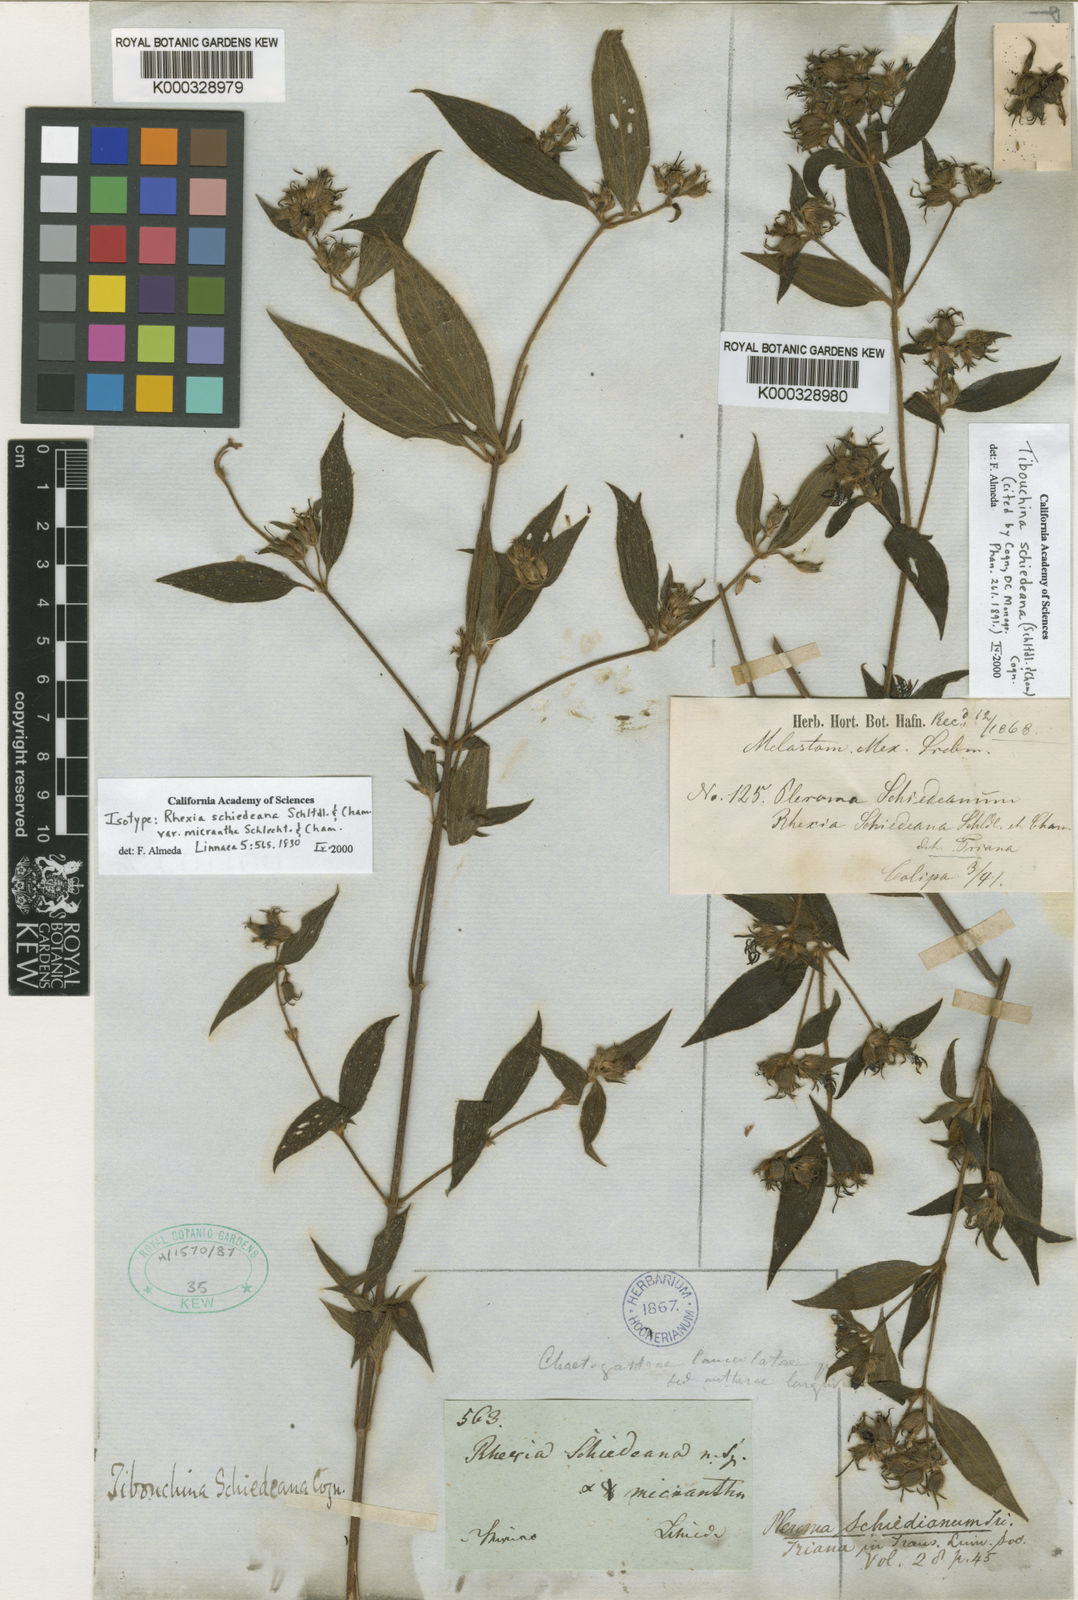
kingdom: Plantae
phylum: Tracheophyta
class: Magnoliopsida
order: Myrtales
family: Melastomataceae
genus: Chaetogastra
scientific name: Chaetogastra schiedeana
